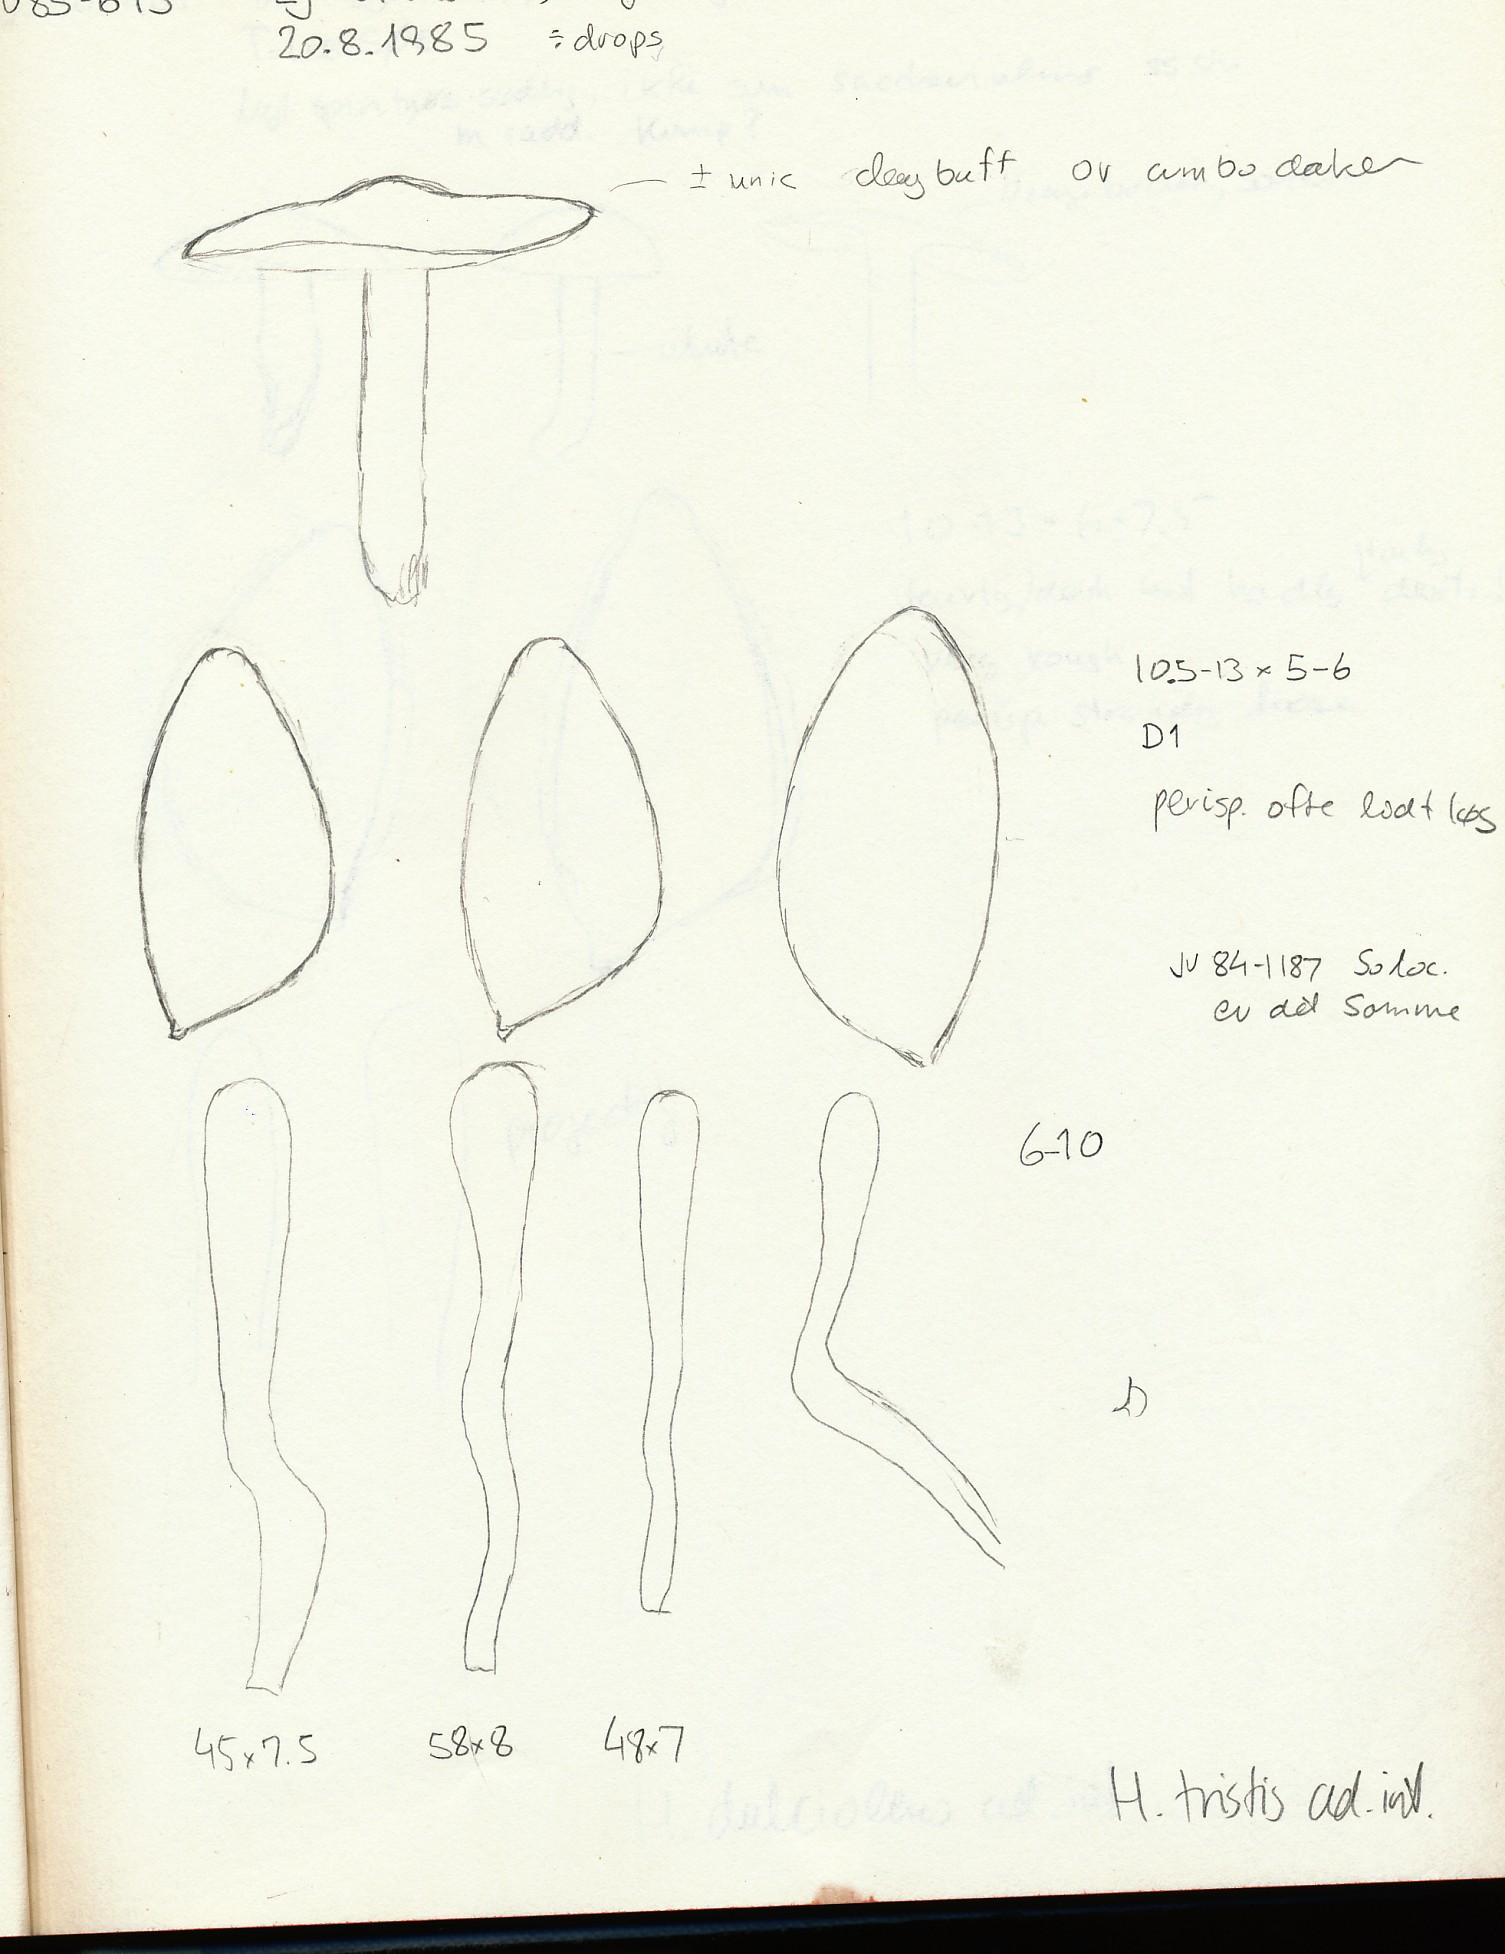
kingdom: Fungi
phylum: Basidiomycota
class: Agaricomycetes
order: Agaricales
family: Hymenogastraceae
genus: Hebeloma
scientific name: Hebeloma cavipes
